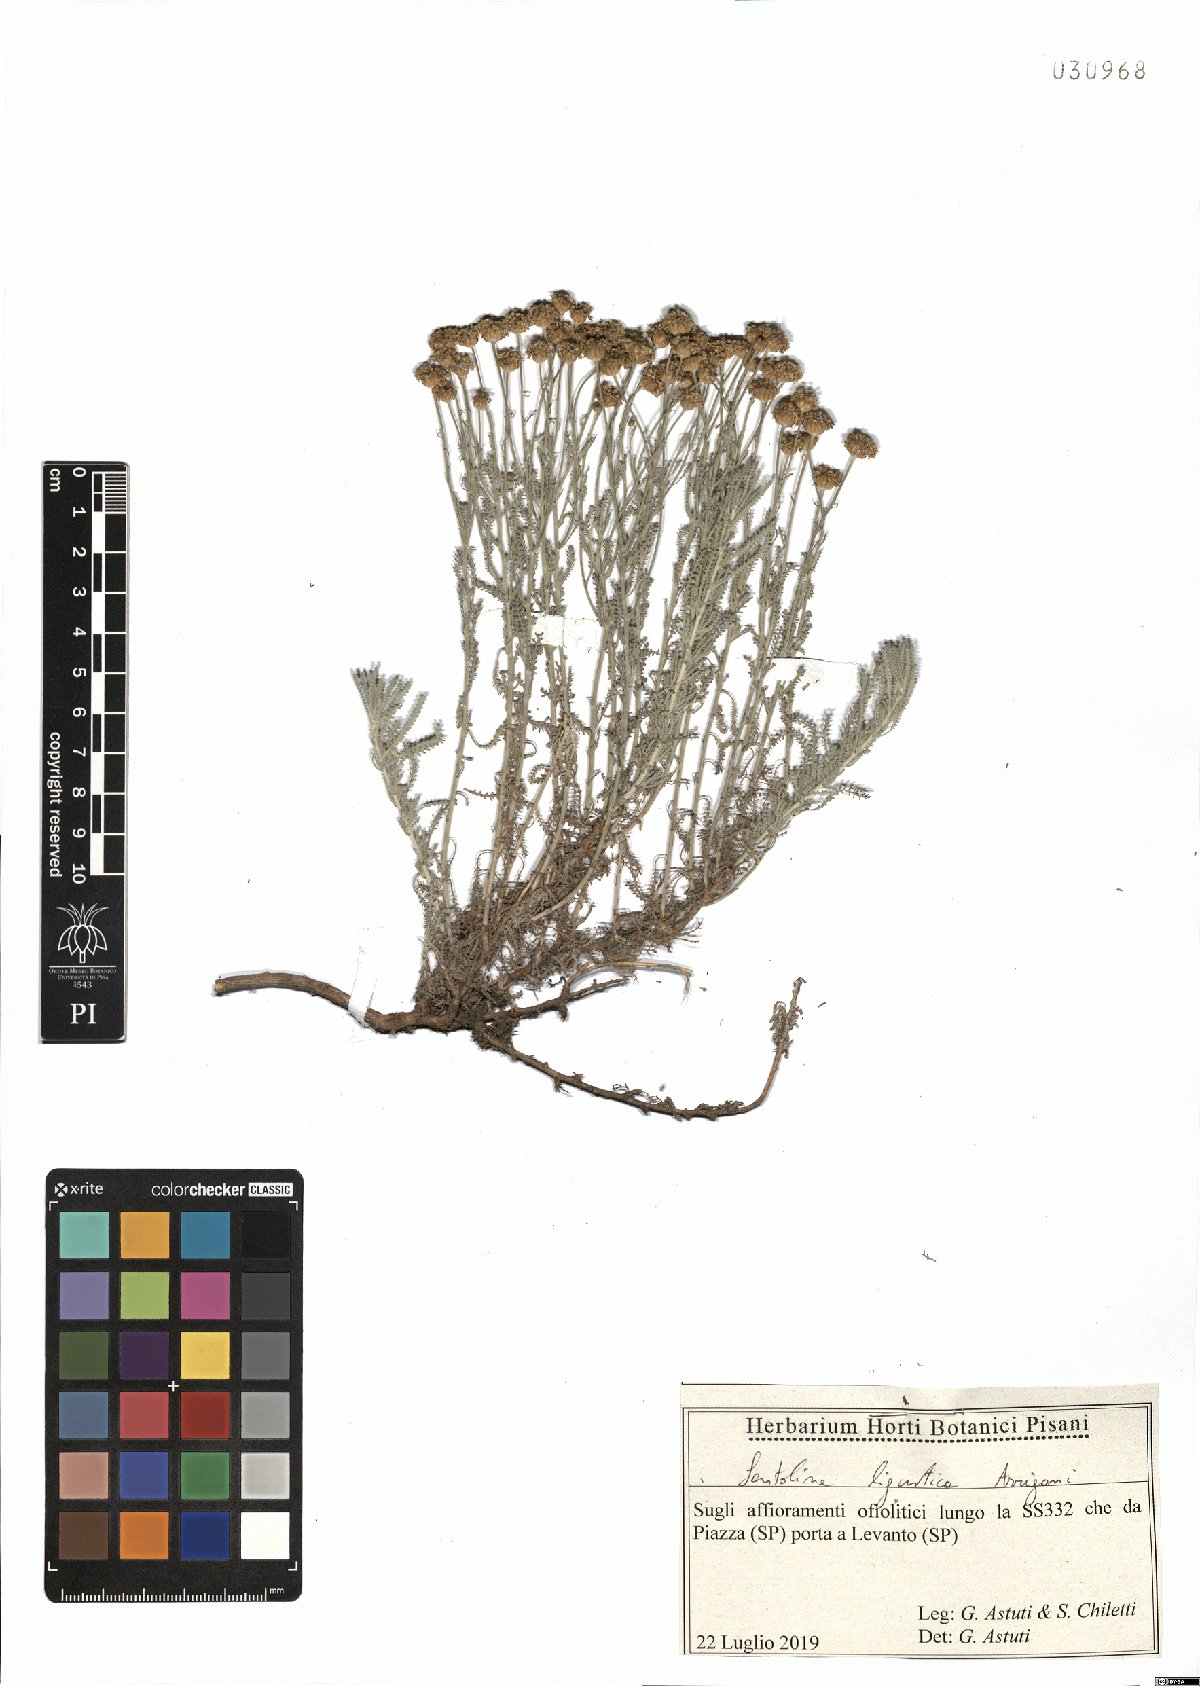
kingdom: Plantae
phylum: Tracheophyta
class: Magnoliopsida
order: Asterales
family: Asteraceae
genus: Santolina
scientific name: Santolina ligustica
